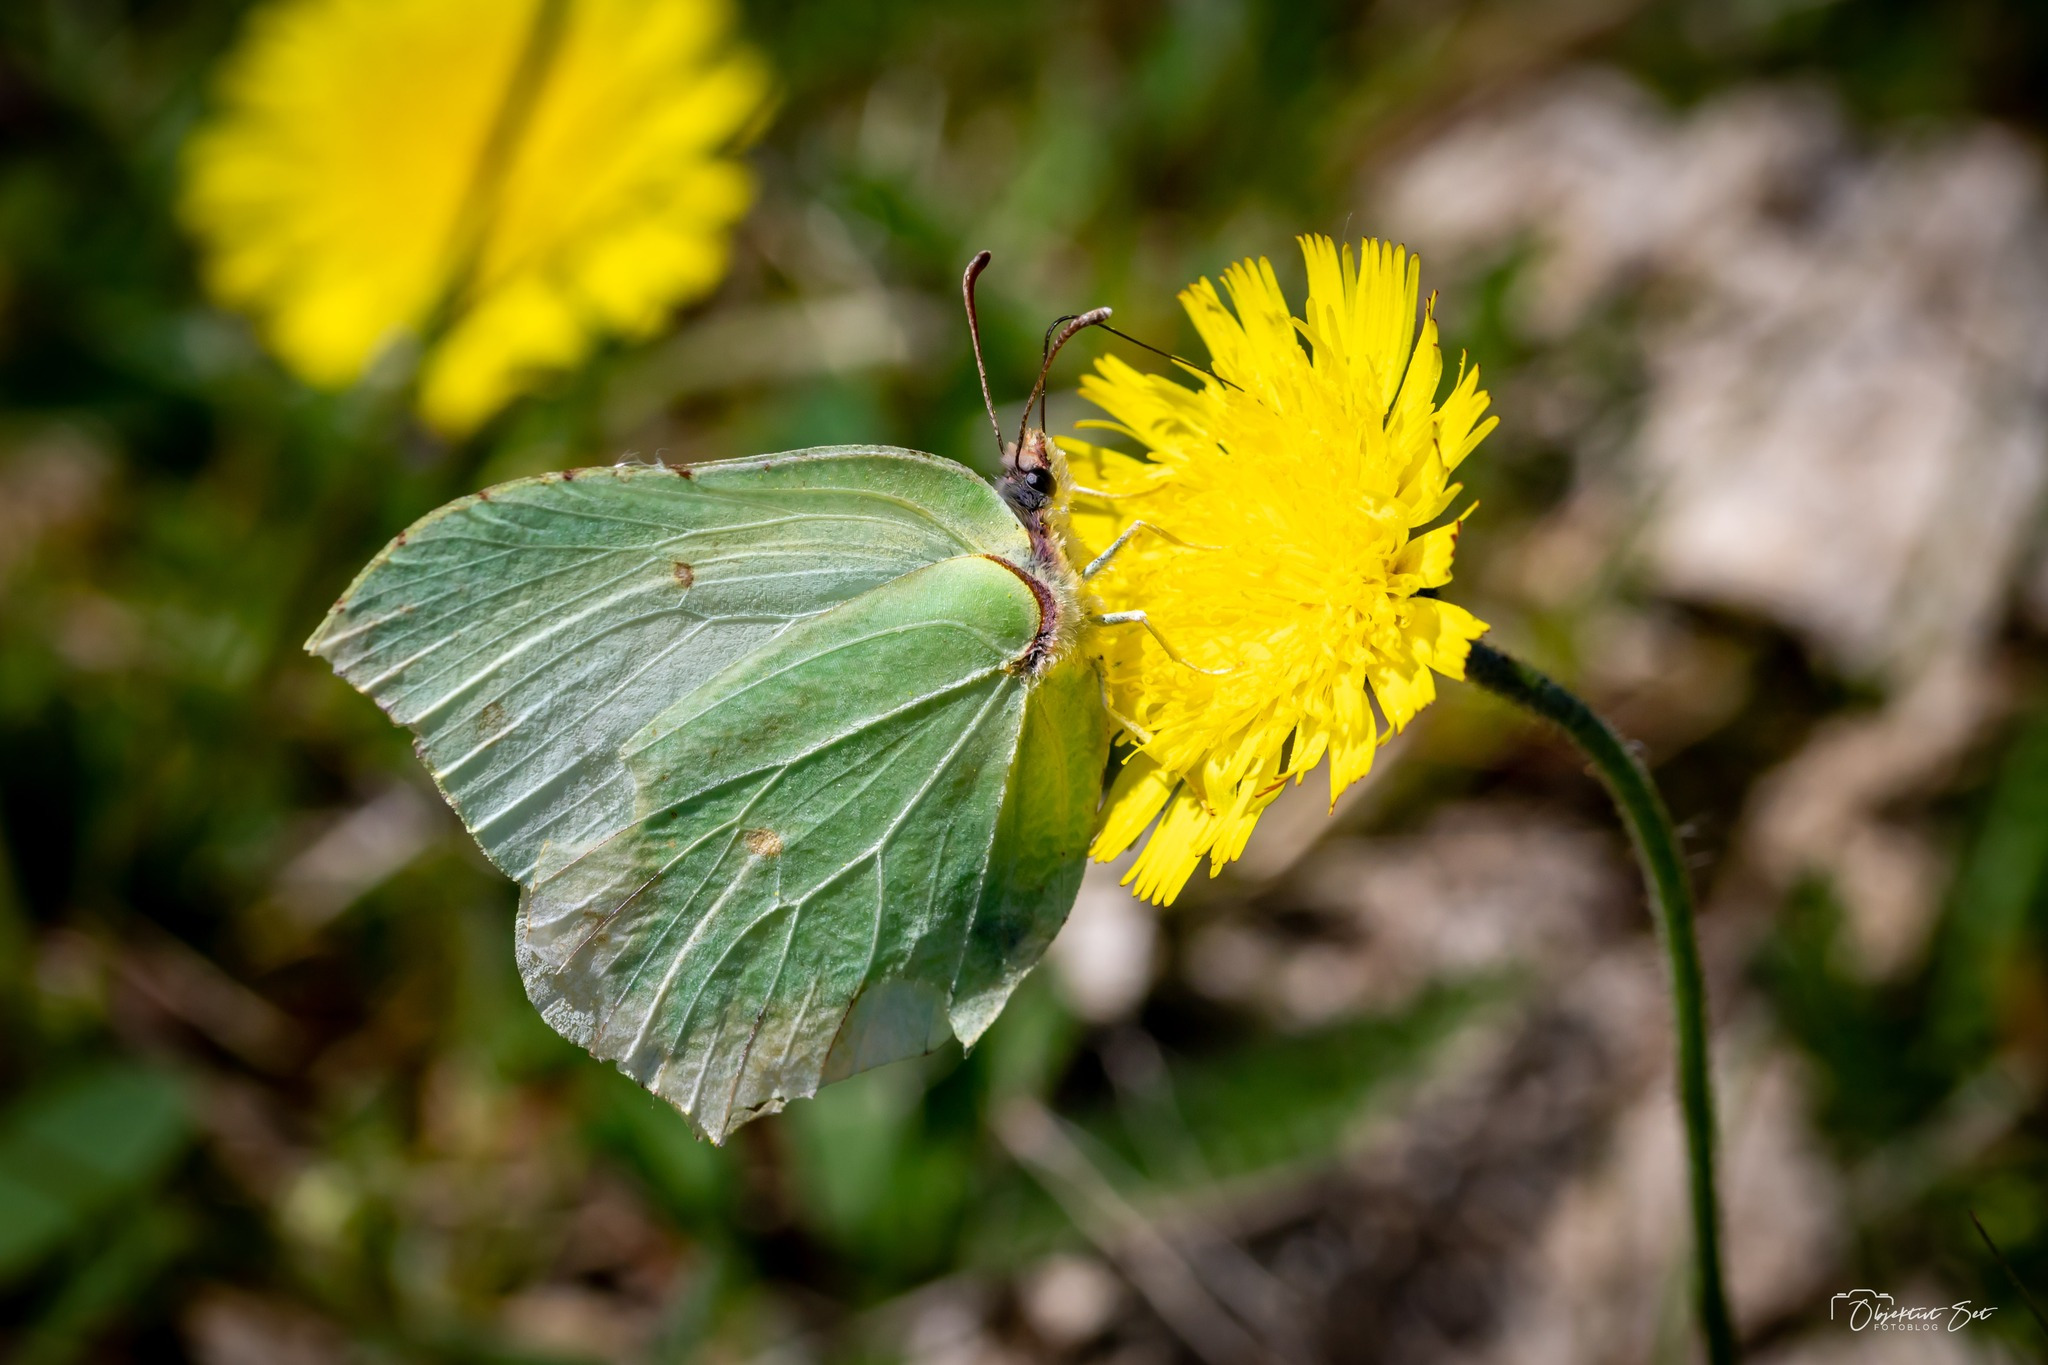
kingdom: Animalia
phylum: Arthropoda
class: Insecta
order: Lepidoptera
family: Pieridae
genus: Gonepteryx
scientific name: Gonepteryx rhamni
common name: Citronsommerfugl
